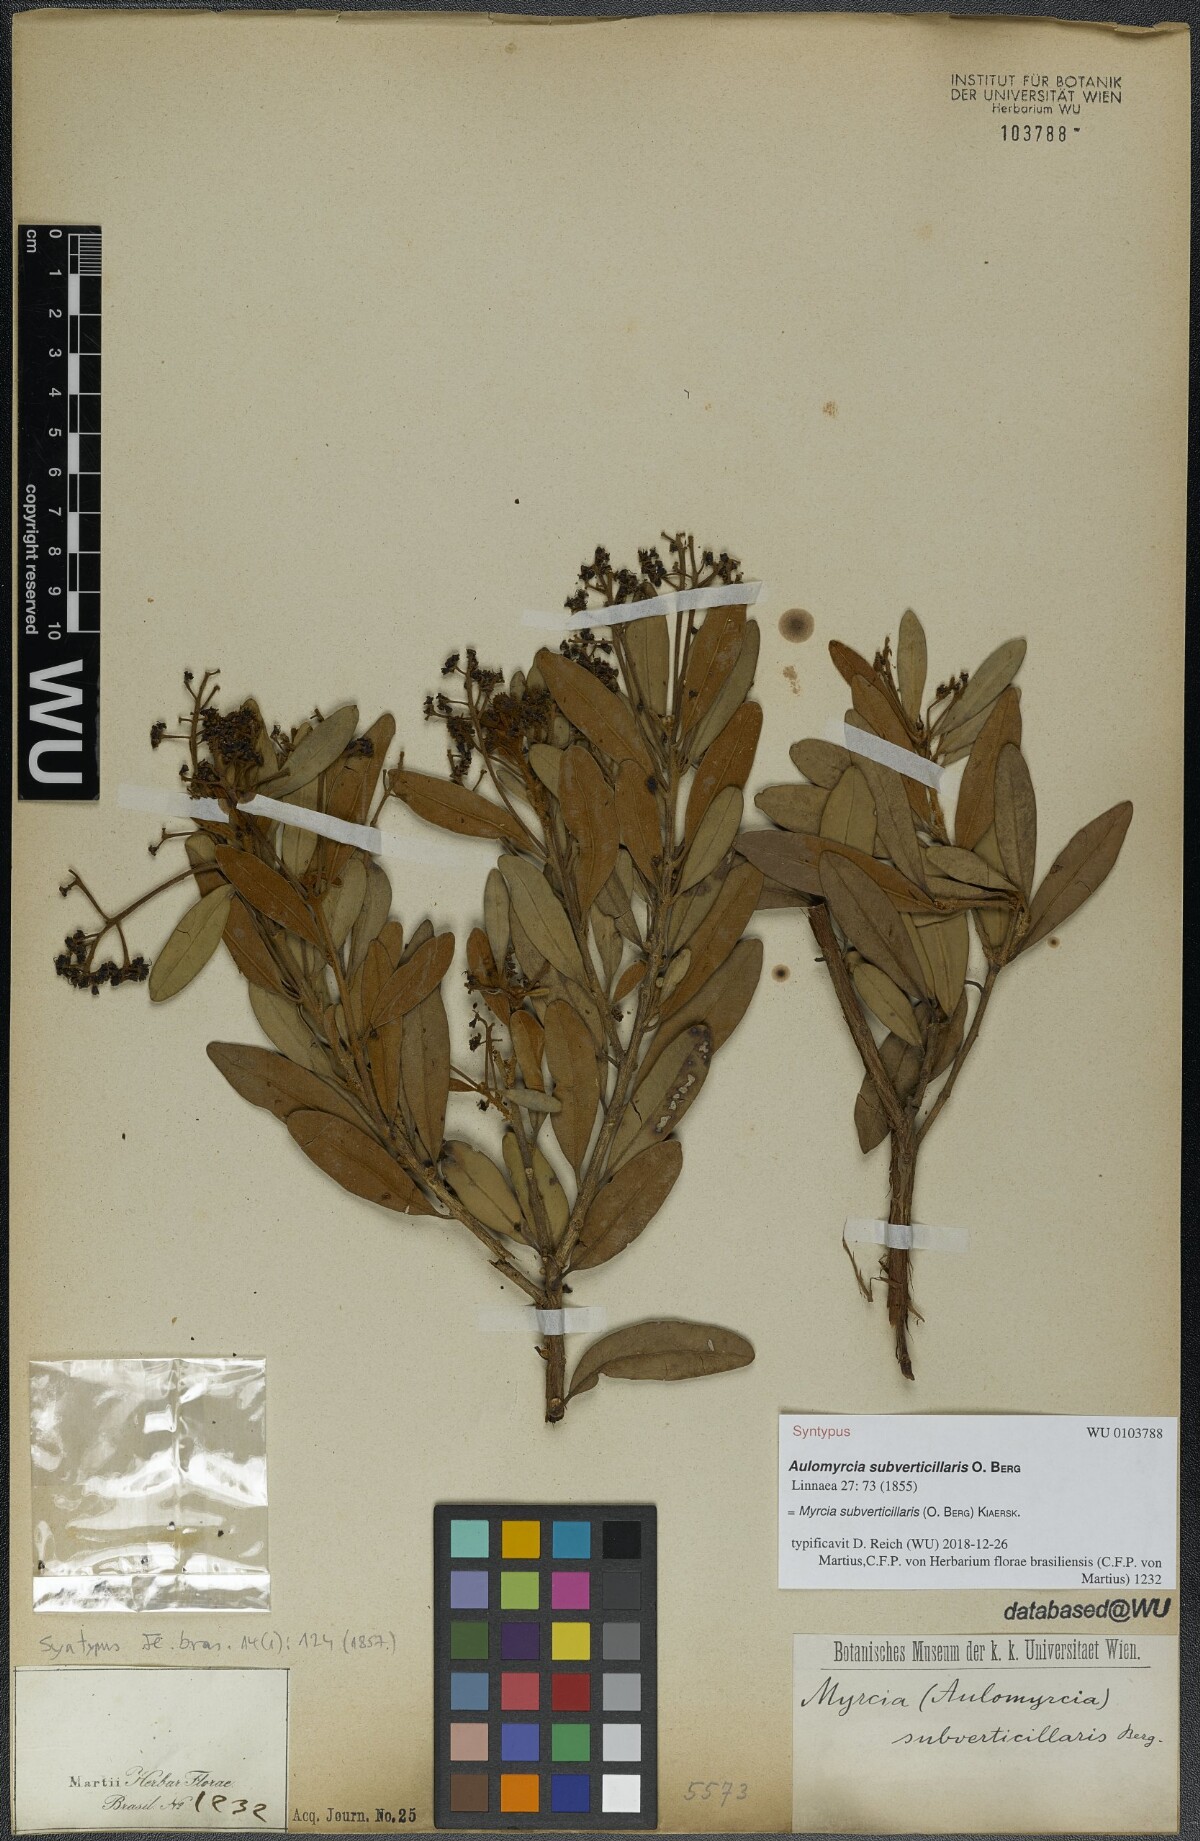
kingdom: Plantae
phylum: Tracheophyta
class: Magnoliopsida
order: Myrtales
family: Myrtaceae
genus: Myrcia
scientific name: Myrcia subverticillaris
